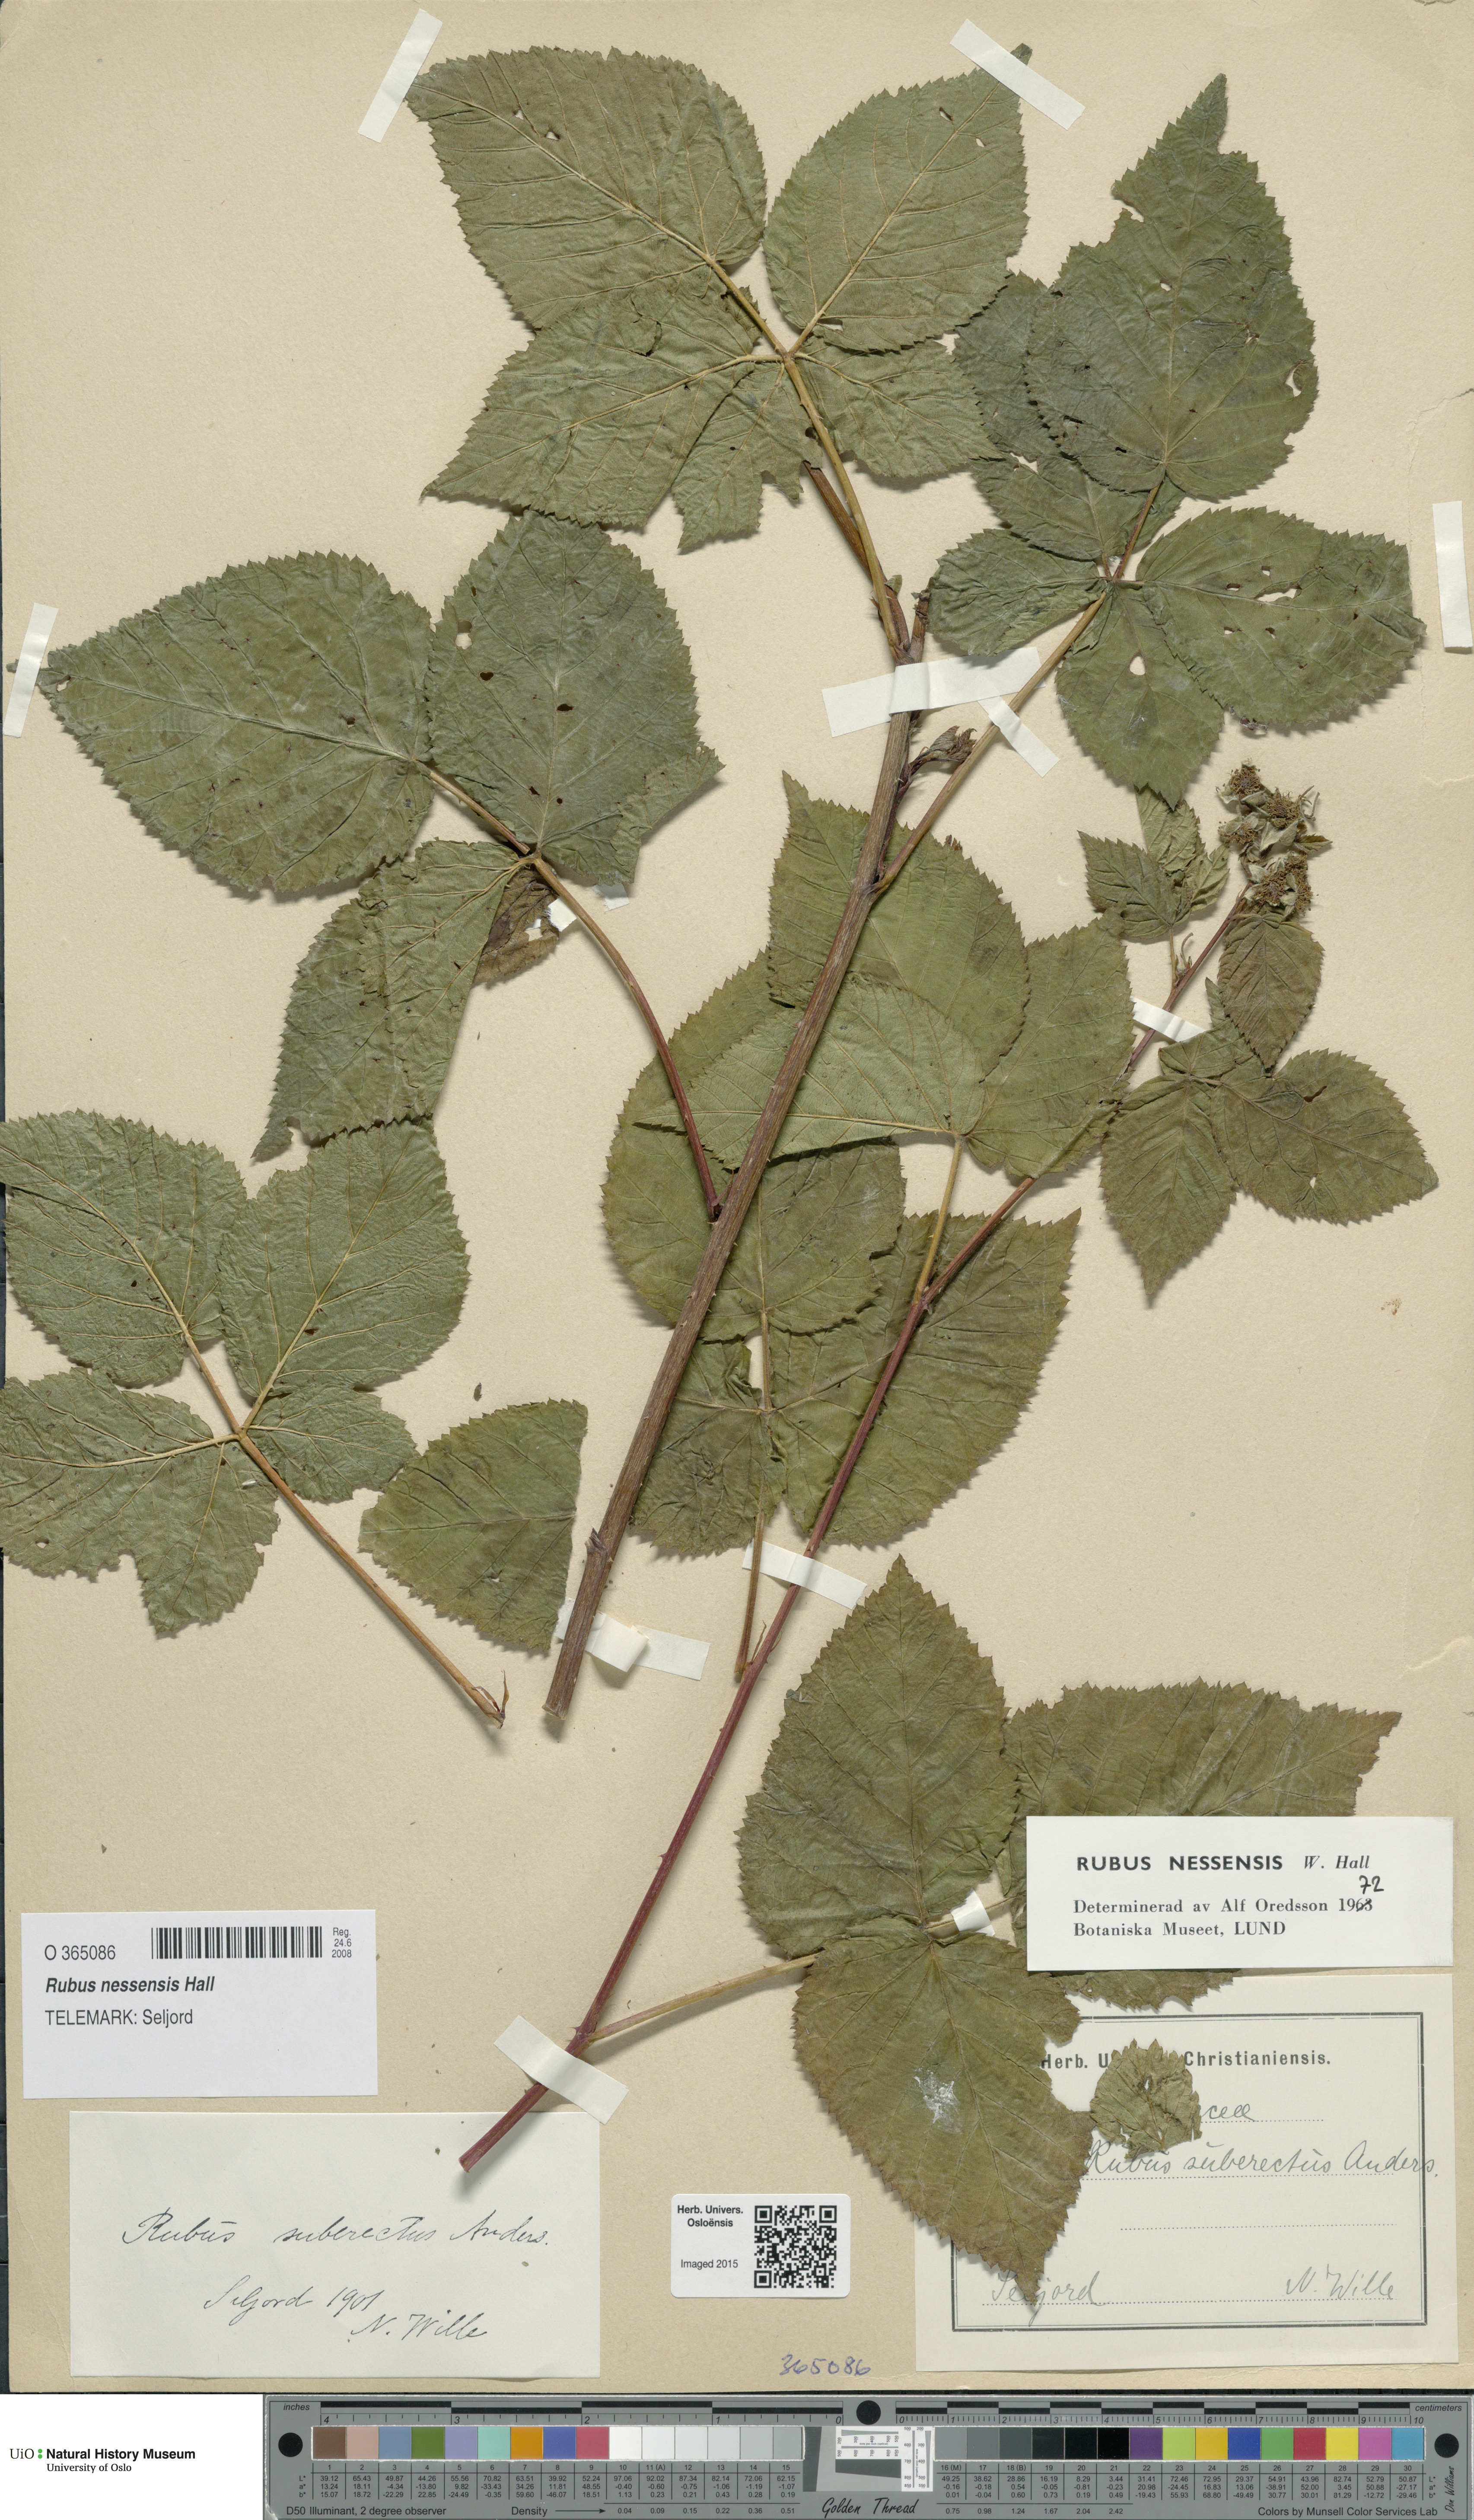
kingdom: Plantae
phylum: Tracheophyta
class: Magnoliopsida
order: Rosales
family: Rosaceae
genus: Rubus
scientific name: Rubus polonicus
